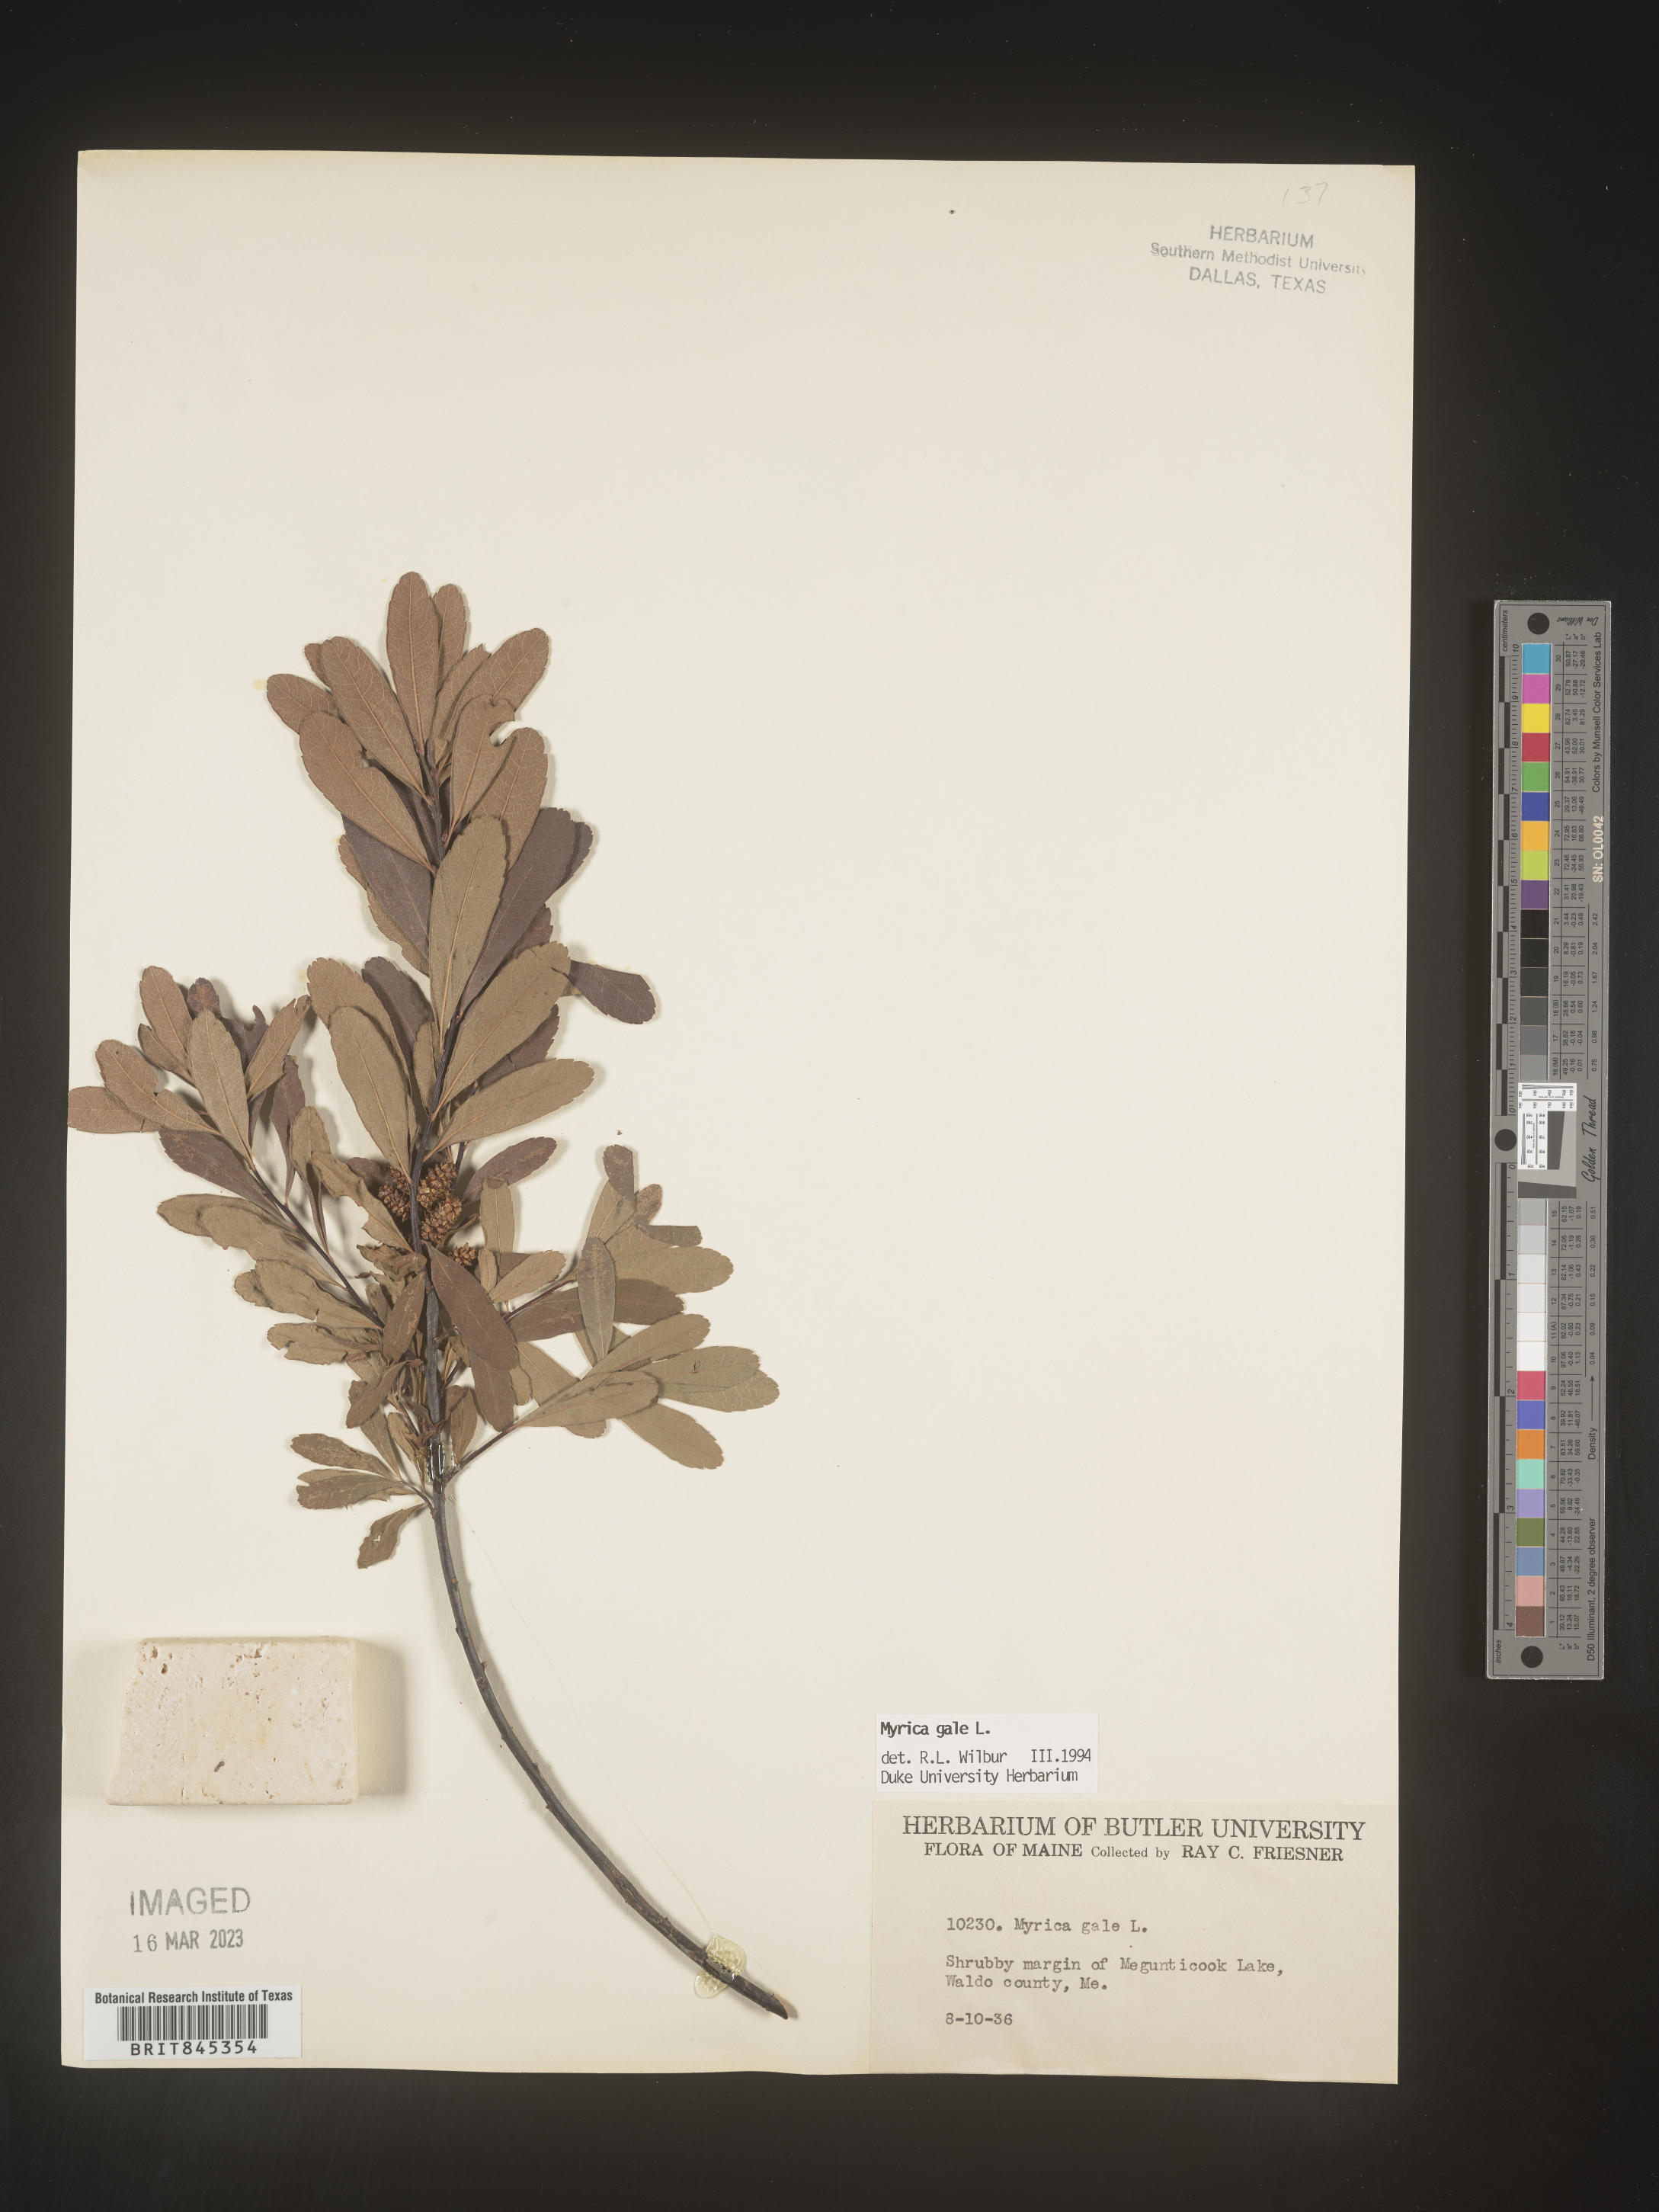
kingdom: Plantae
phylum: Tracheophyta
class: Magnoliopsida
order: Fagales
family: Myricaceae
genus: Myrica
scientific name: Myrica gale
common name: Sweet gale
